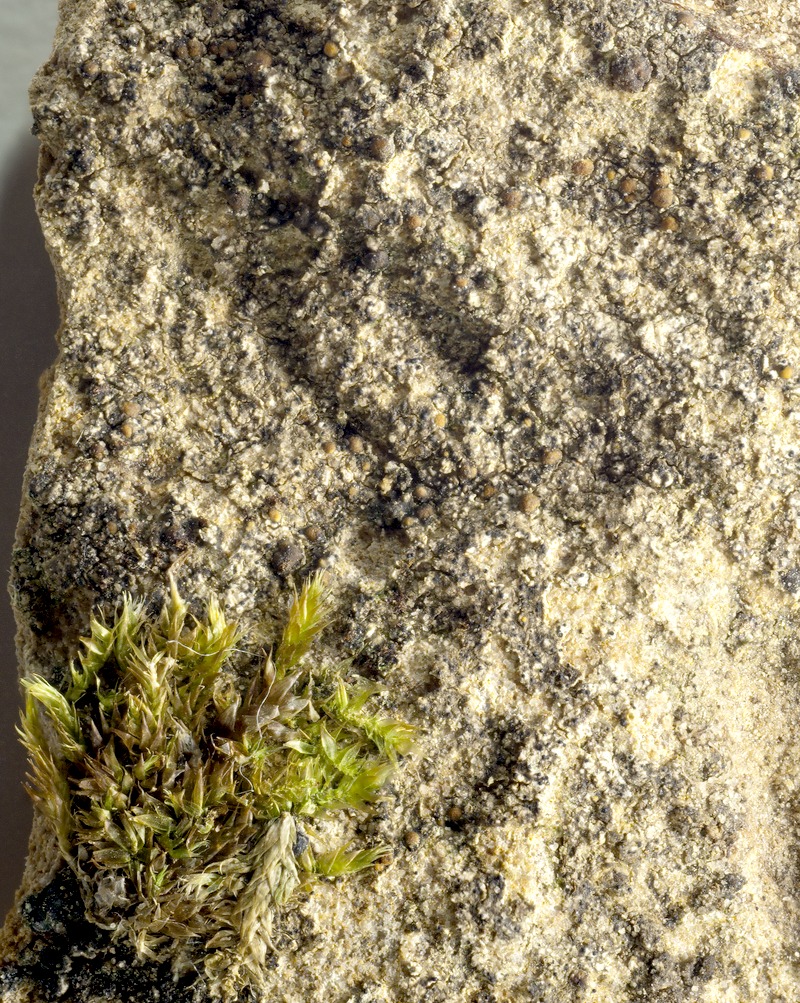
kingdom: Fungi
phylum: Ascomycota
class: Dothideomycetes
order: Dothideales
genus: Endococcus
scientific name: Endococcus protoblasteniae
